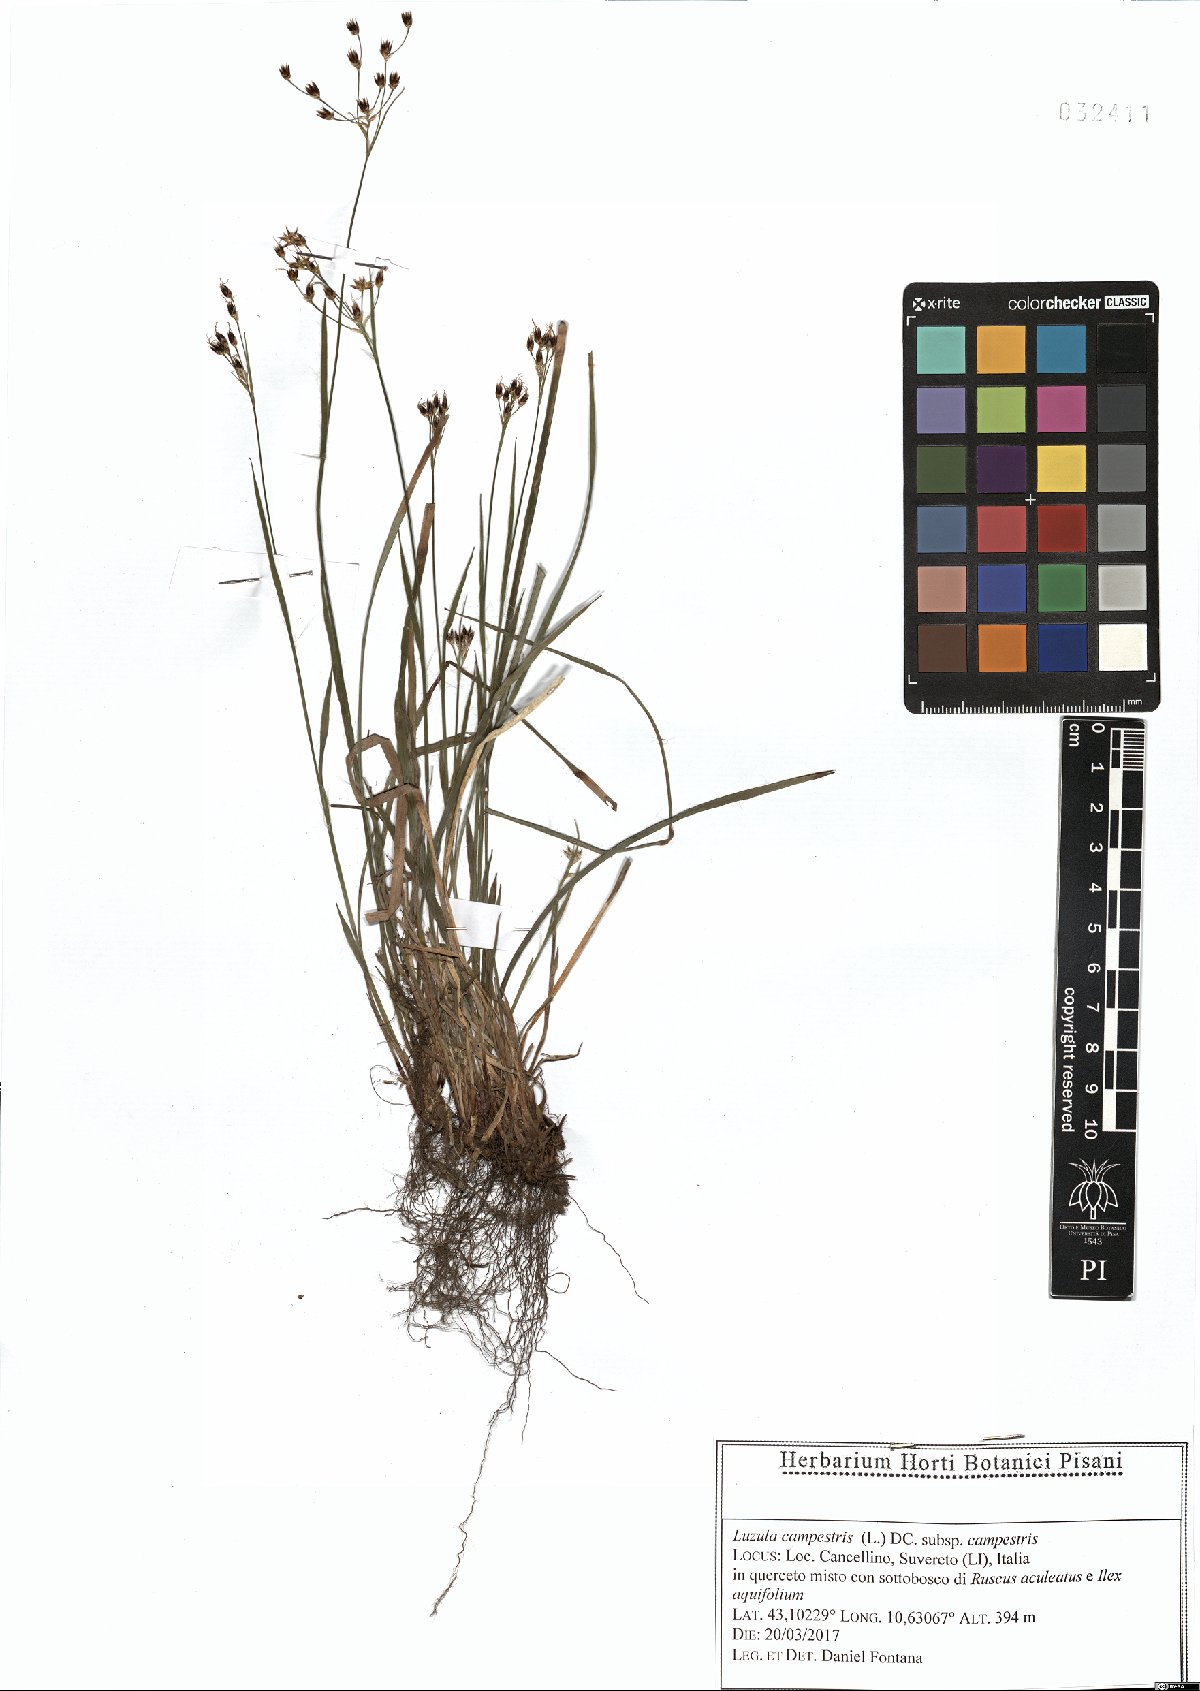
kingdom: Plantae
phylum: Tracheophyta
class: Liliopsida
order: Poales
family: Juncaceae
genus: Luzula
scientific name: Luzula campestris
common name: Field wood-rush
